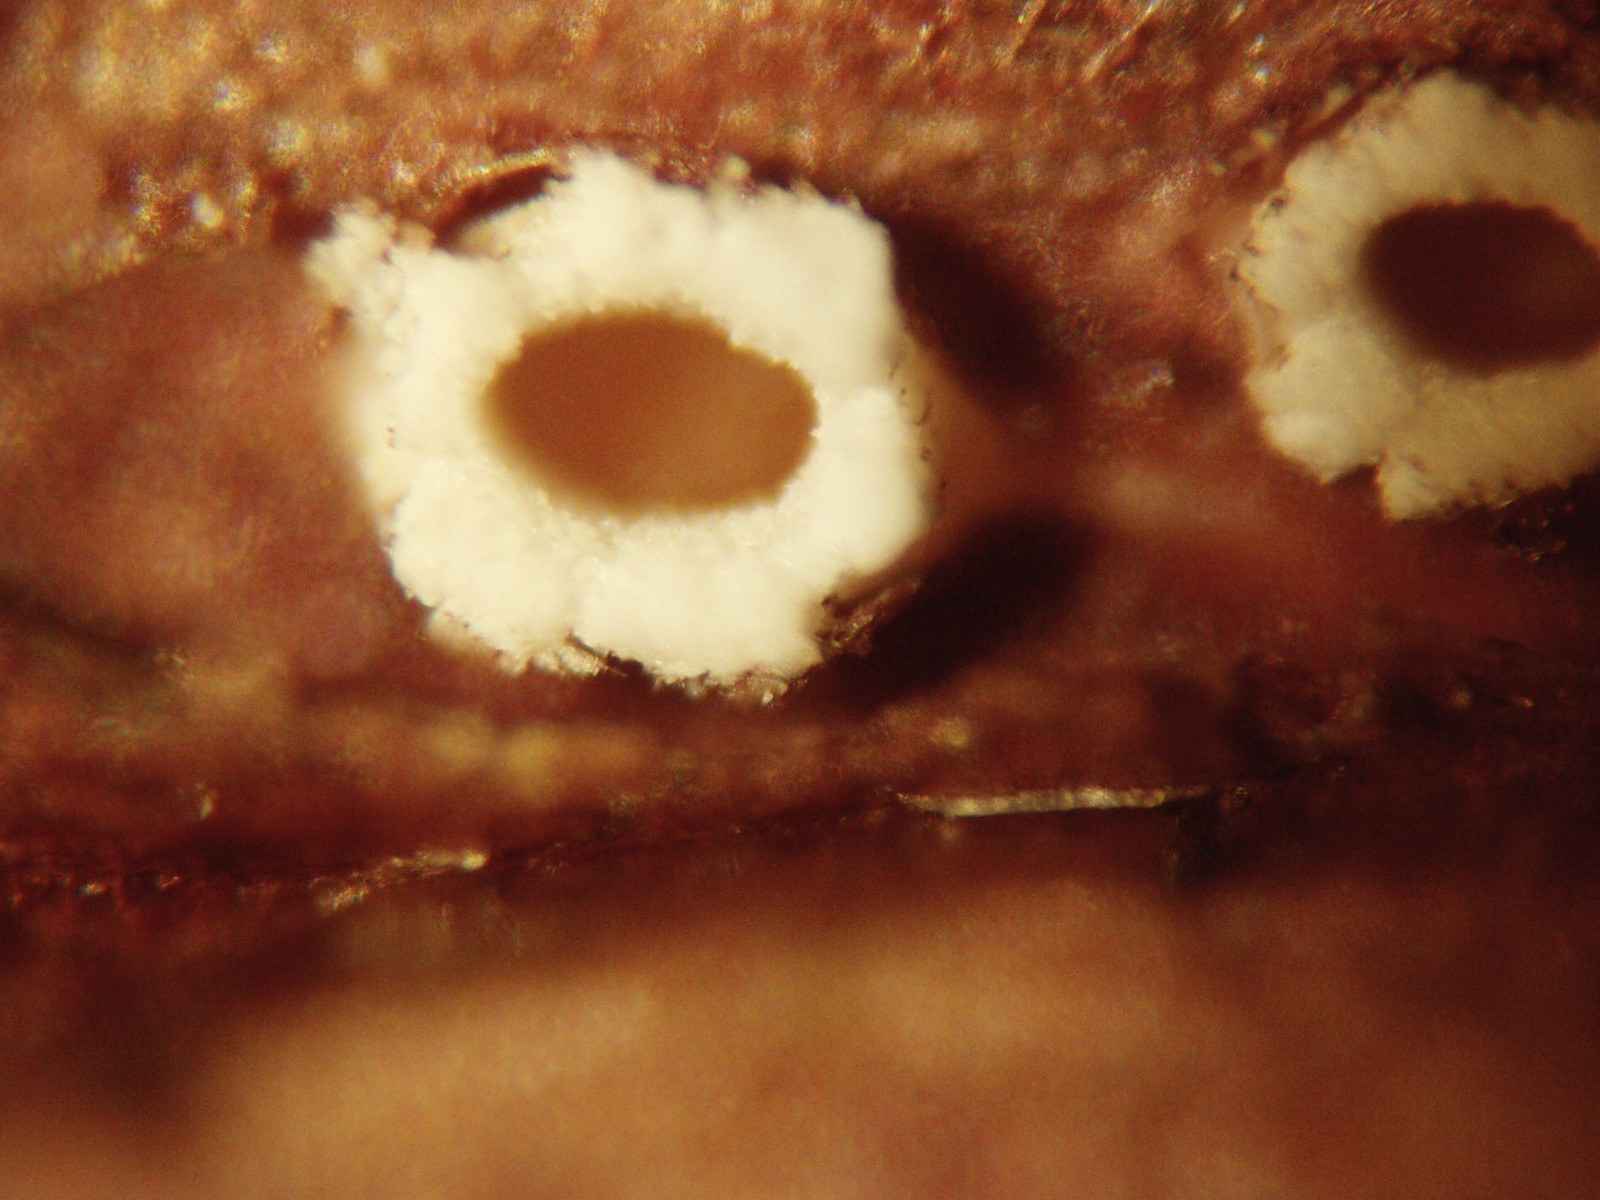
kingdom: Fungi
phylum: Ascomycota
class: Lecanoromycetes
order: Ostropales
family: Stictidaceae
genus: Stictis
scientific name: Stictis radiata
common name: tandet barkhul
